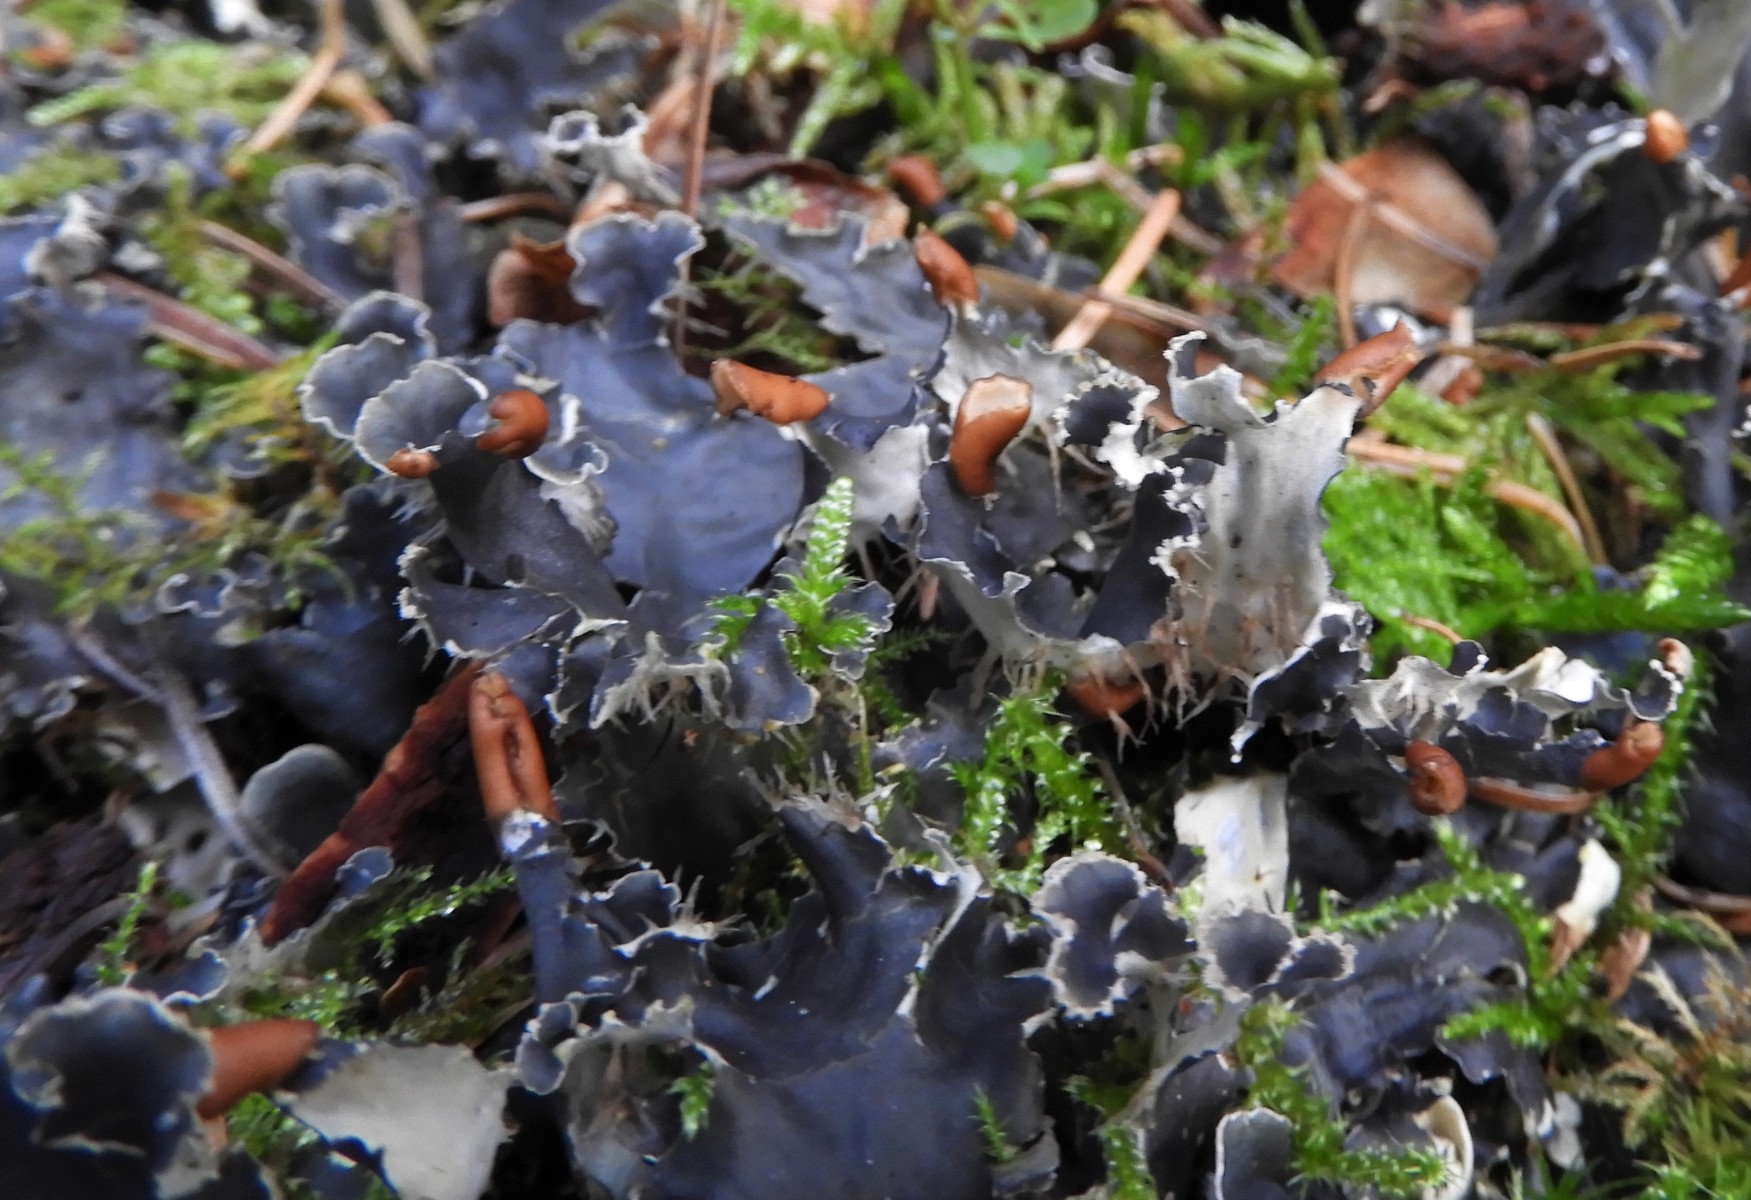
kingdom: Fungi
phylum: Ascomycota
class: Lecanoromycetes
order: Peltigerales
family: Peltigeraceae
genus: Peltigera
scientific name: Peltigera hymenina
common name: hinde-skjoldlav
